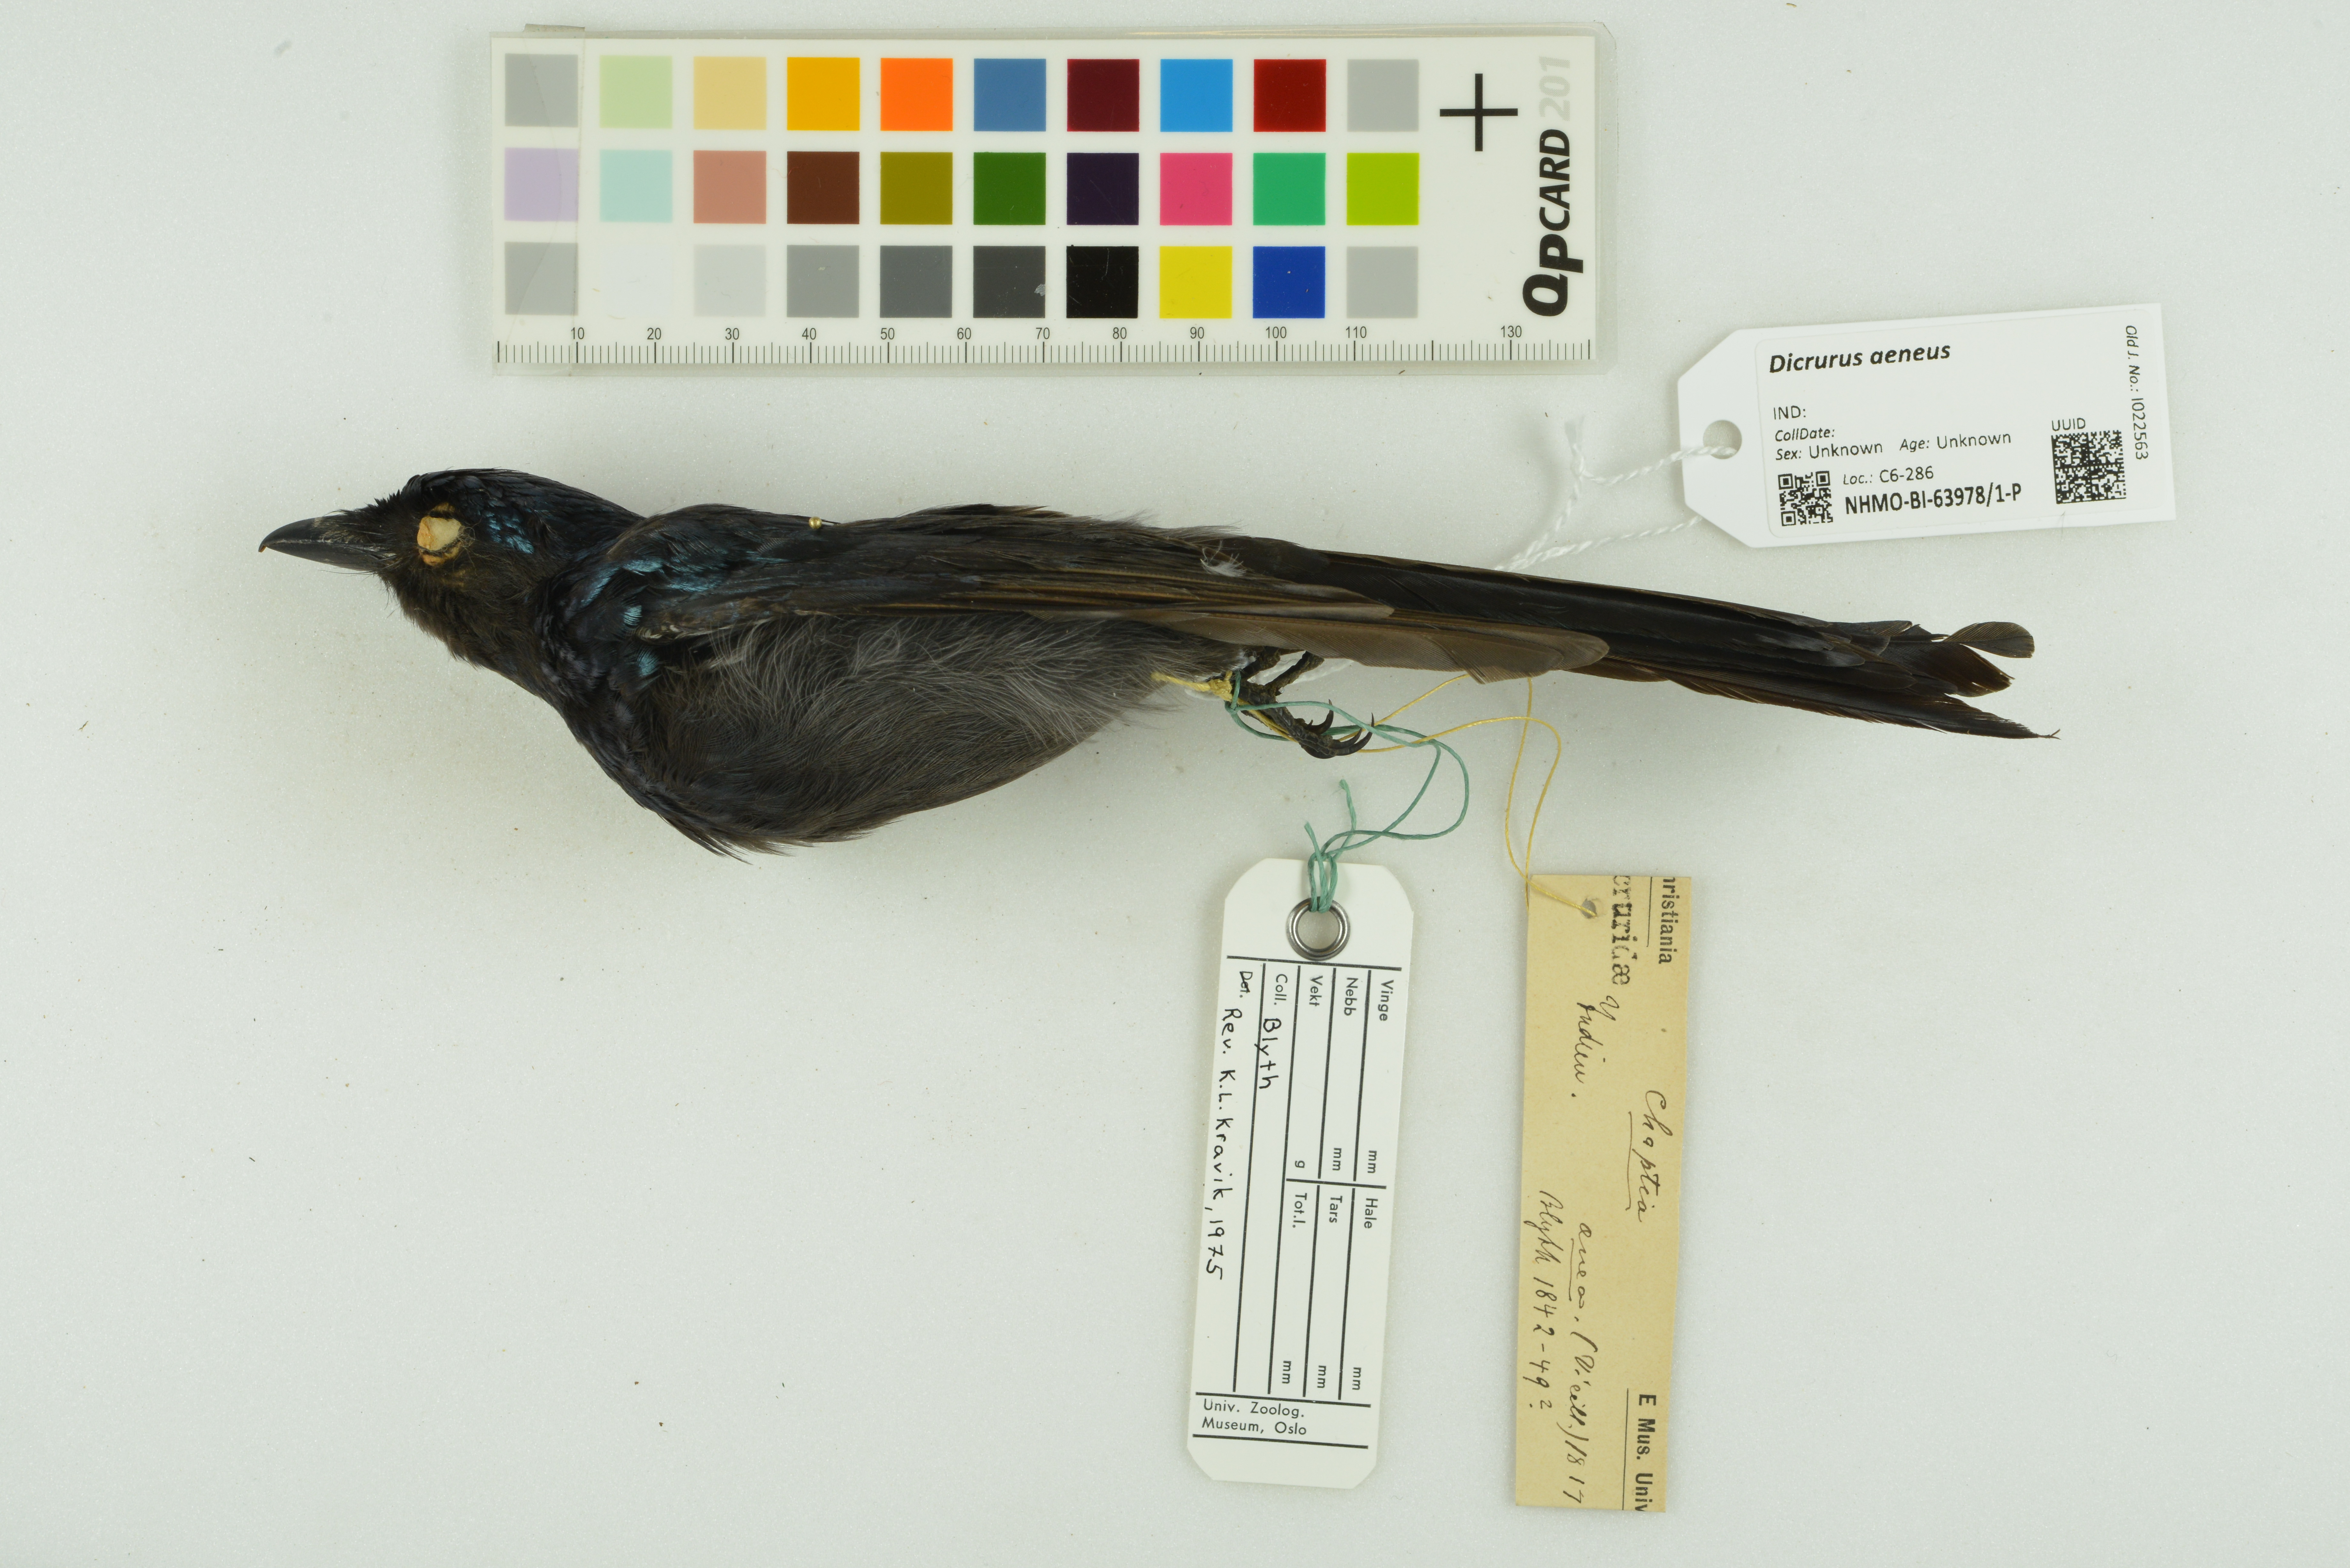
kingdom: Animalia
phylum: Chordata
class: Aves
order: Passeriformes
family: Dicruridae
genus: Dicrurus
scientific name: Dicrurus aeneus
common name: Bronzed drongo
